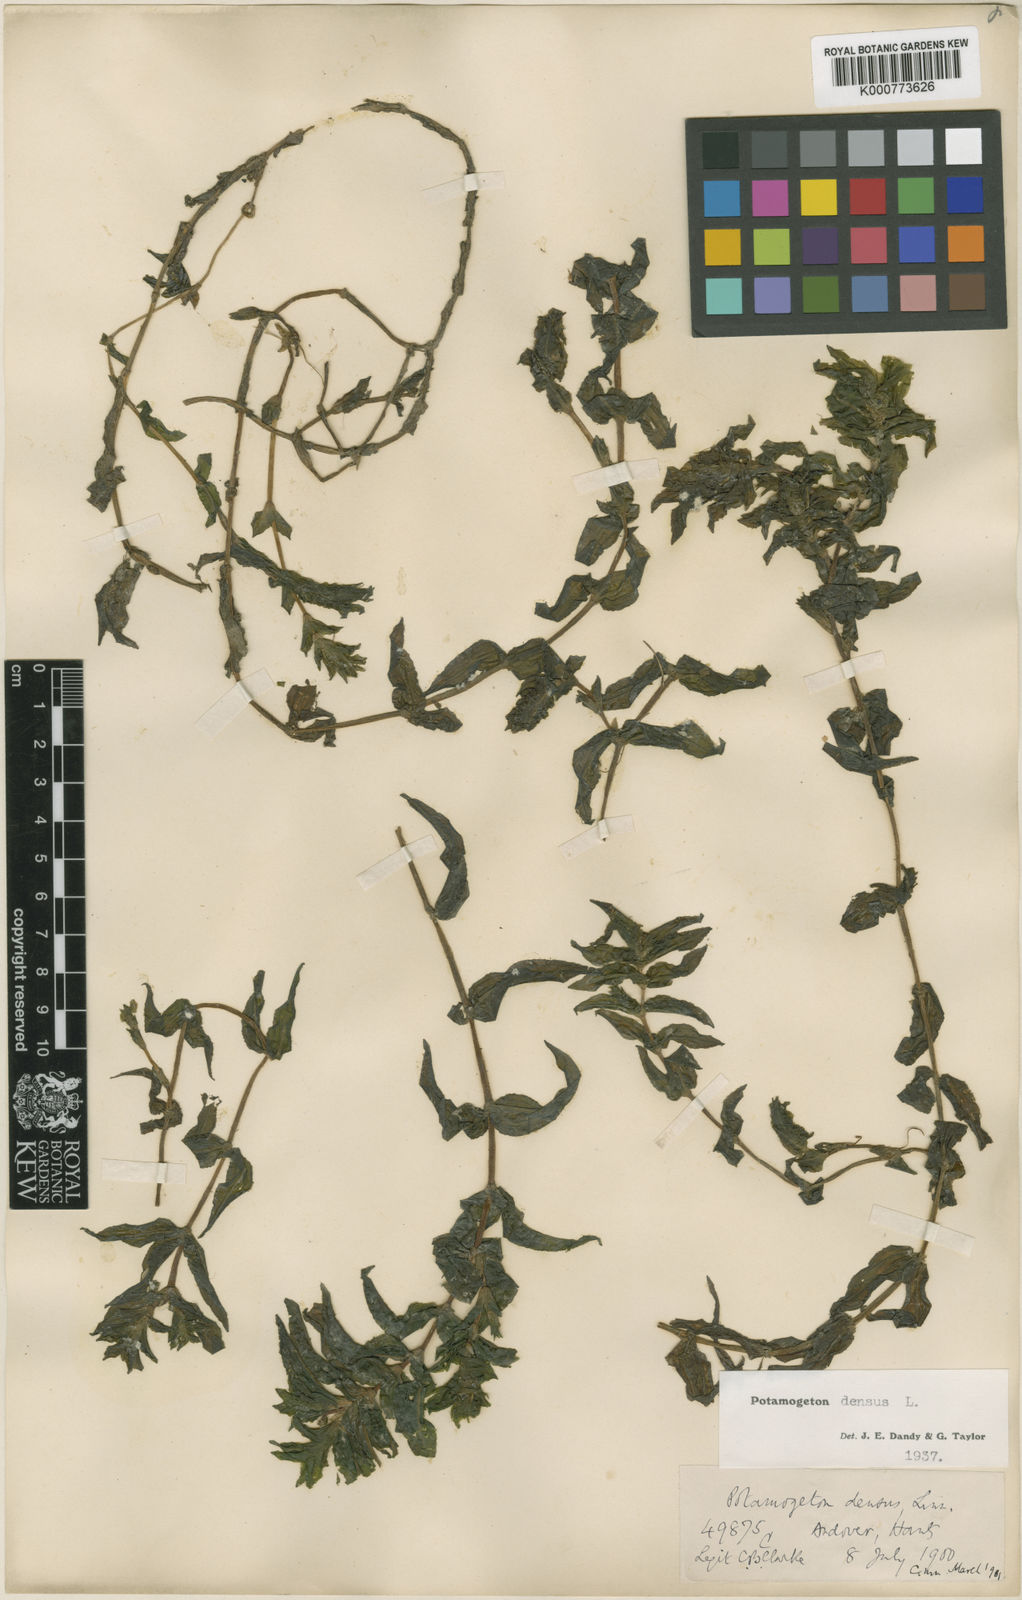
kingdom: Plantae
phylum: Tracheophyta
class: Liliopsida
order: Alismatales
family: Potamogetonaceae
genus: Groenlandia
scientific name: Groenlandia densa
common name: Opposite-leaved pondweed
